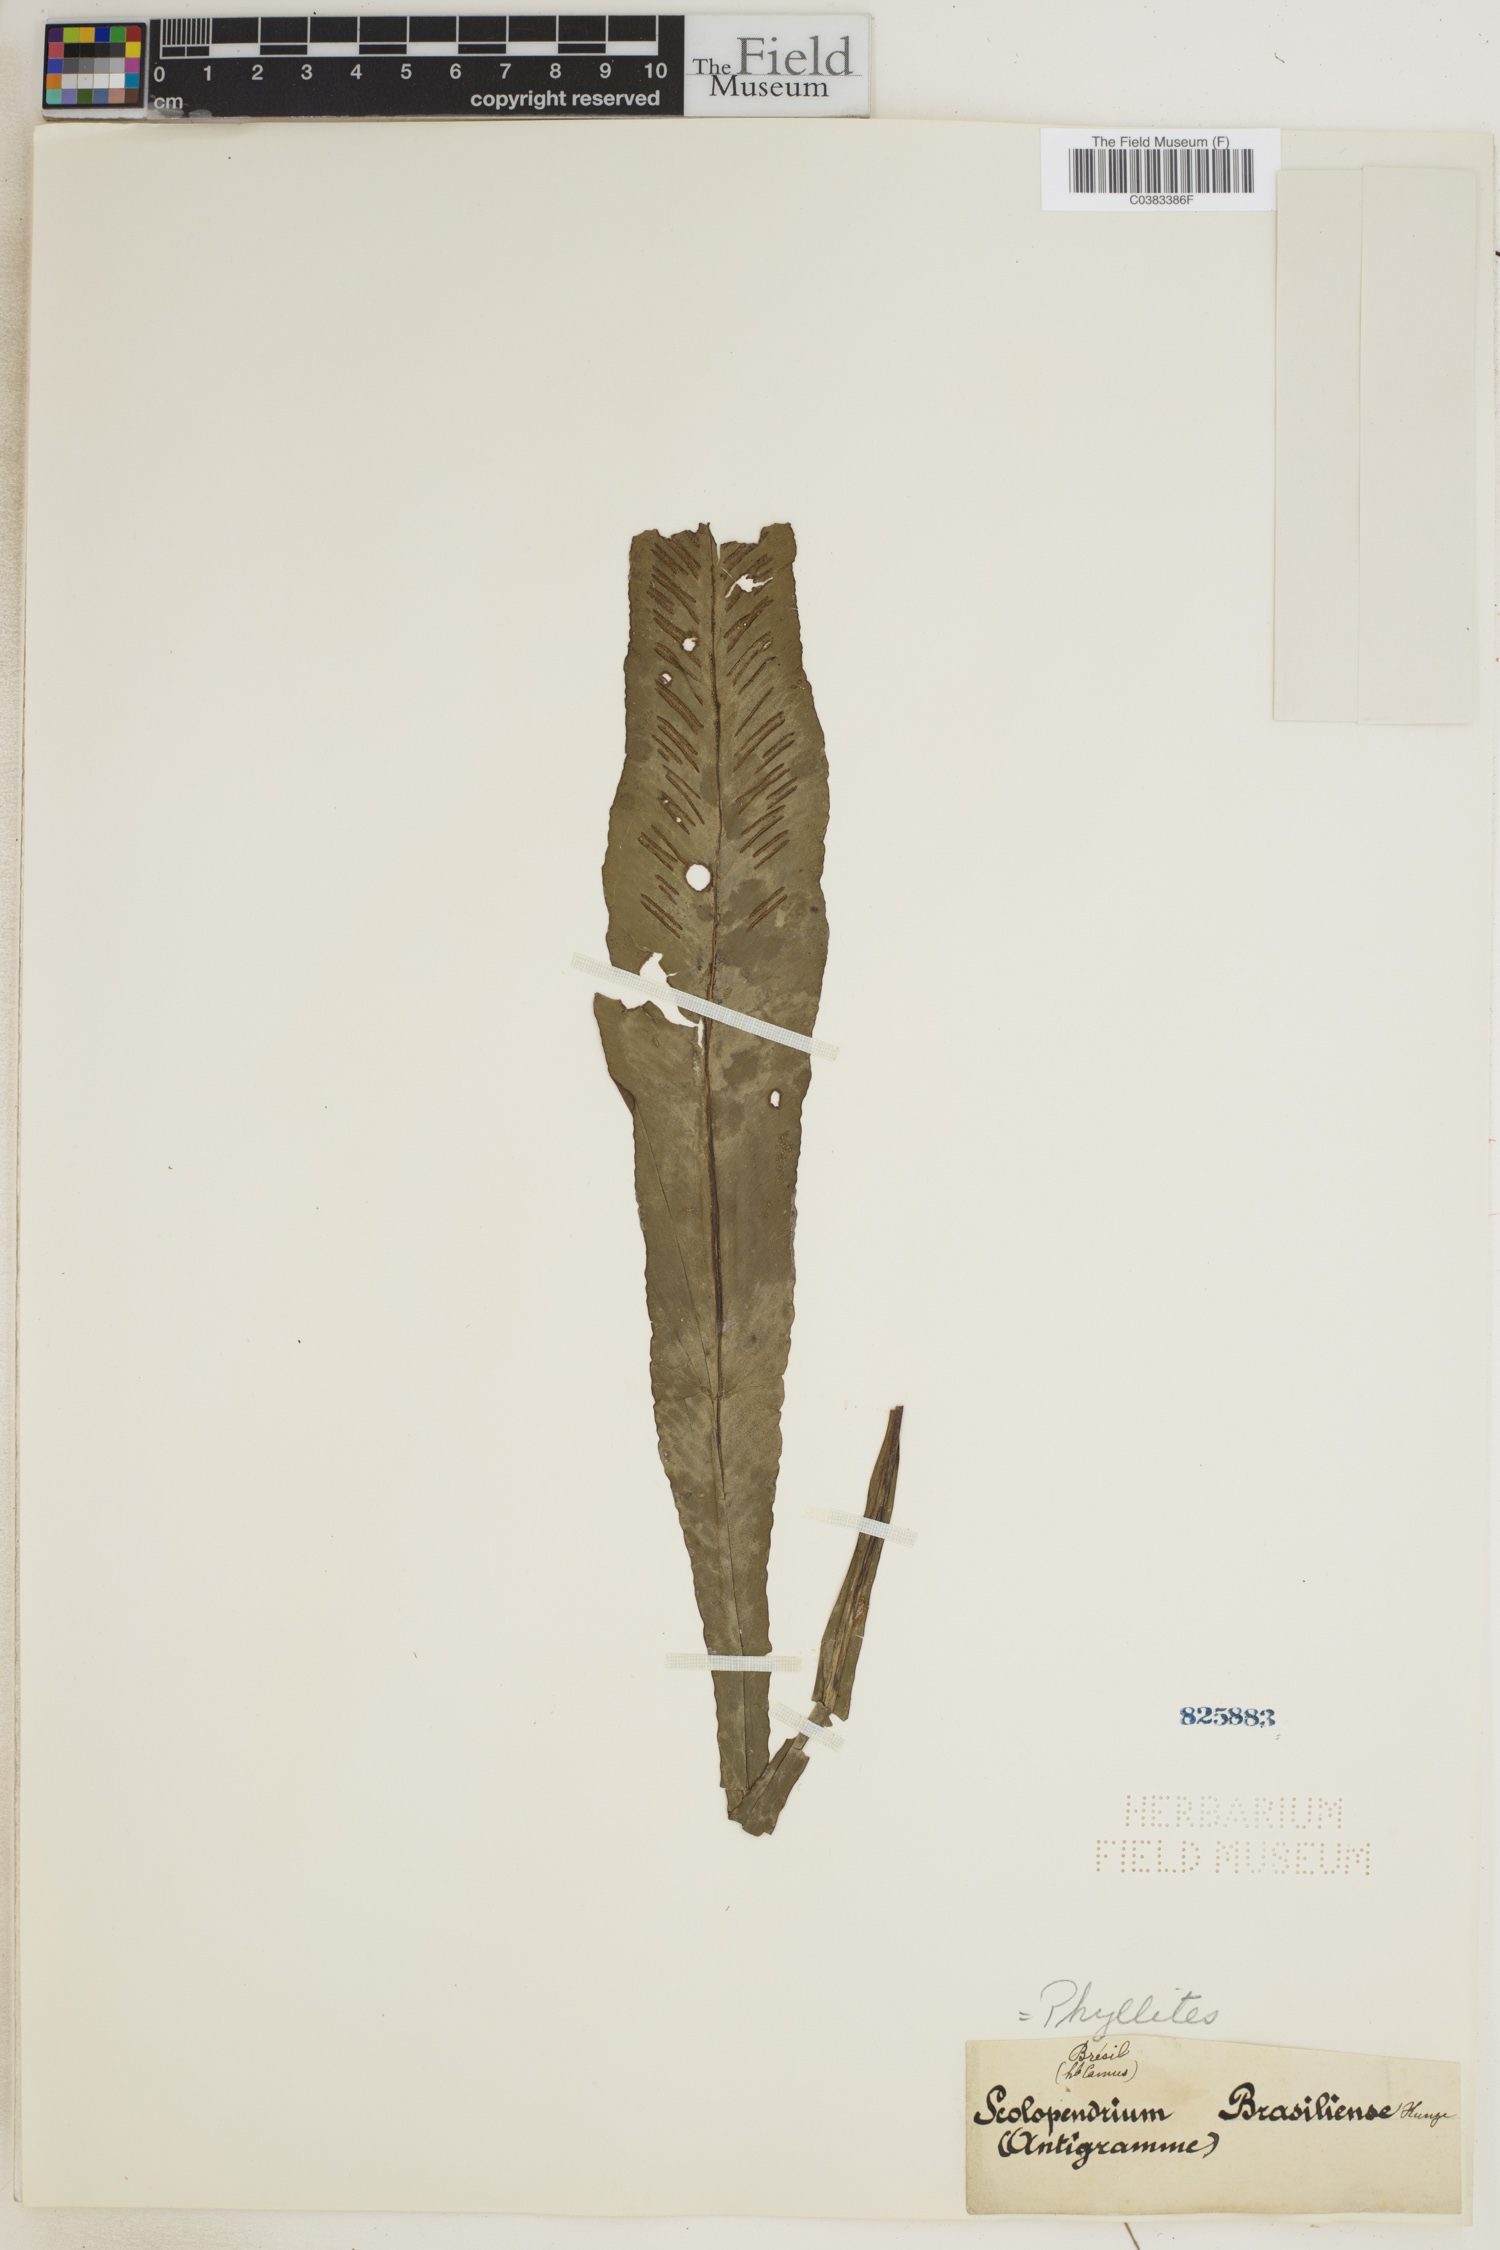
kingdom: Plantae
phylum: Tracheophyta
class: Polypodiopsida
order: Polypodiales
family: Aspleniaceae
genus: Asplenium
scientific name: Asplenium brasiliense
